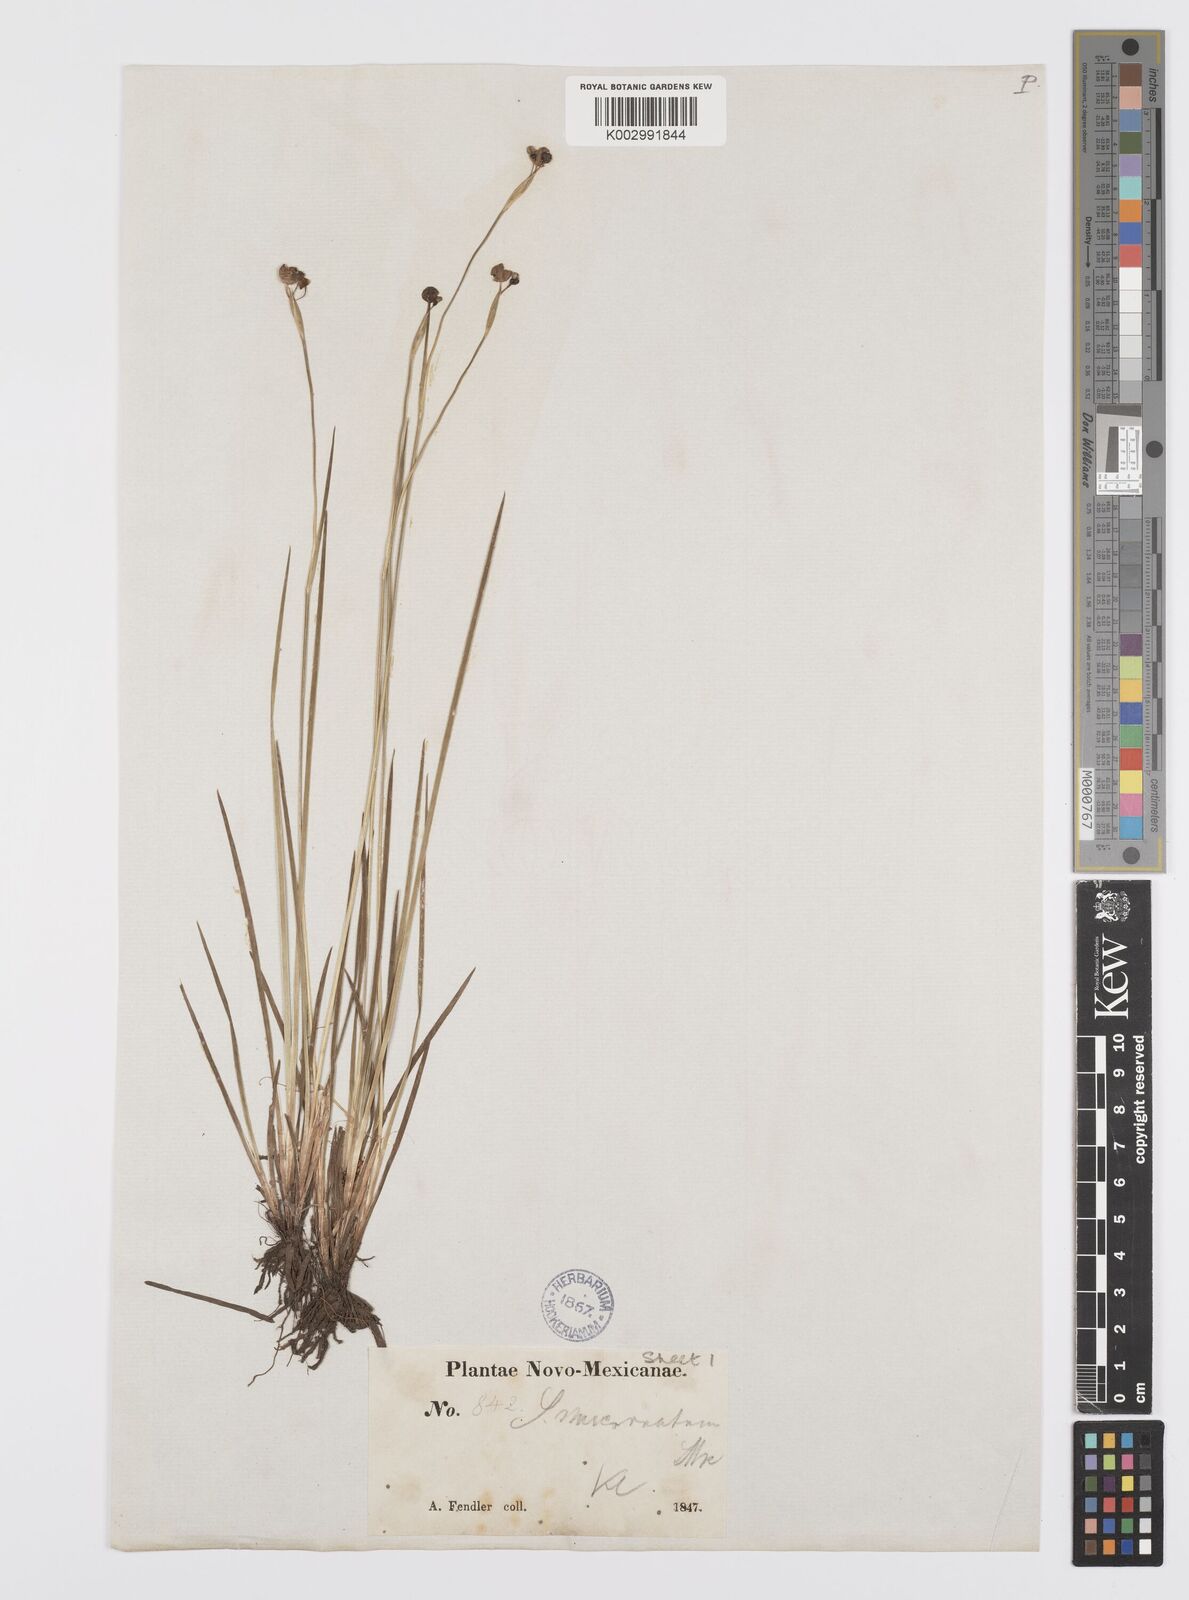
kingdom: Plantae
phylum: Tracheophyta
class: Liliopsida
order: Asparagales
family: Iridaceae
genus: Sisyrinchium
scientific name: Sisyrinchium bermudiana
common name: Blue-eyed-grass
